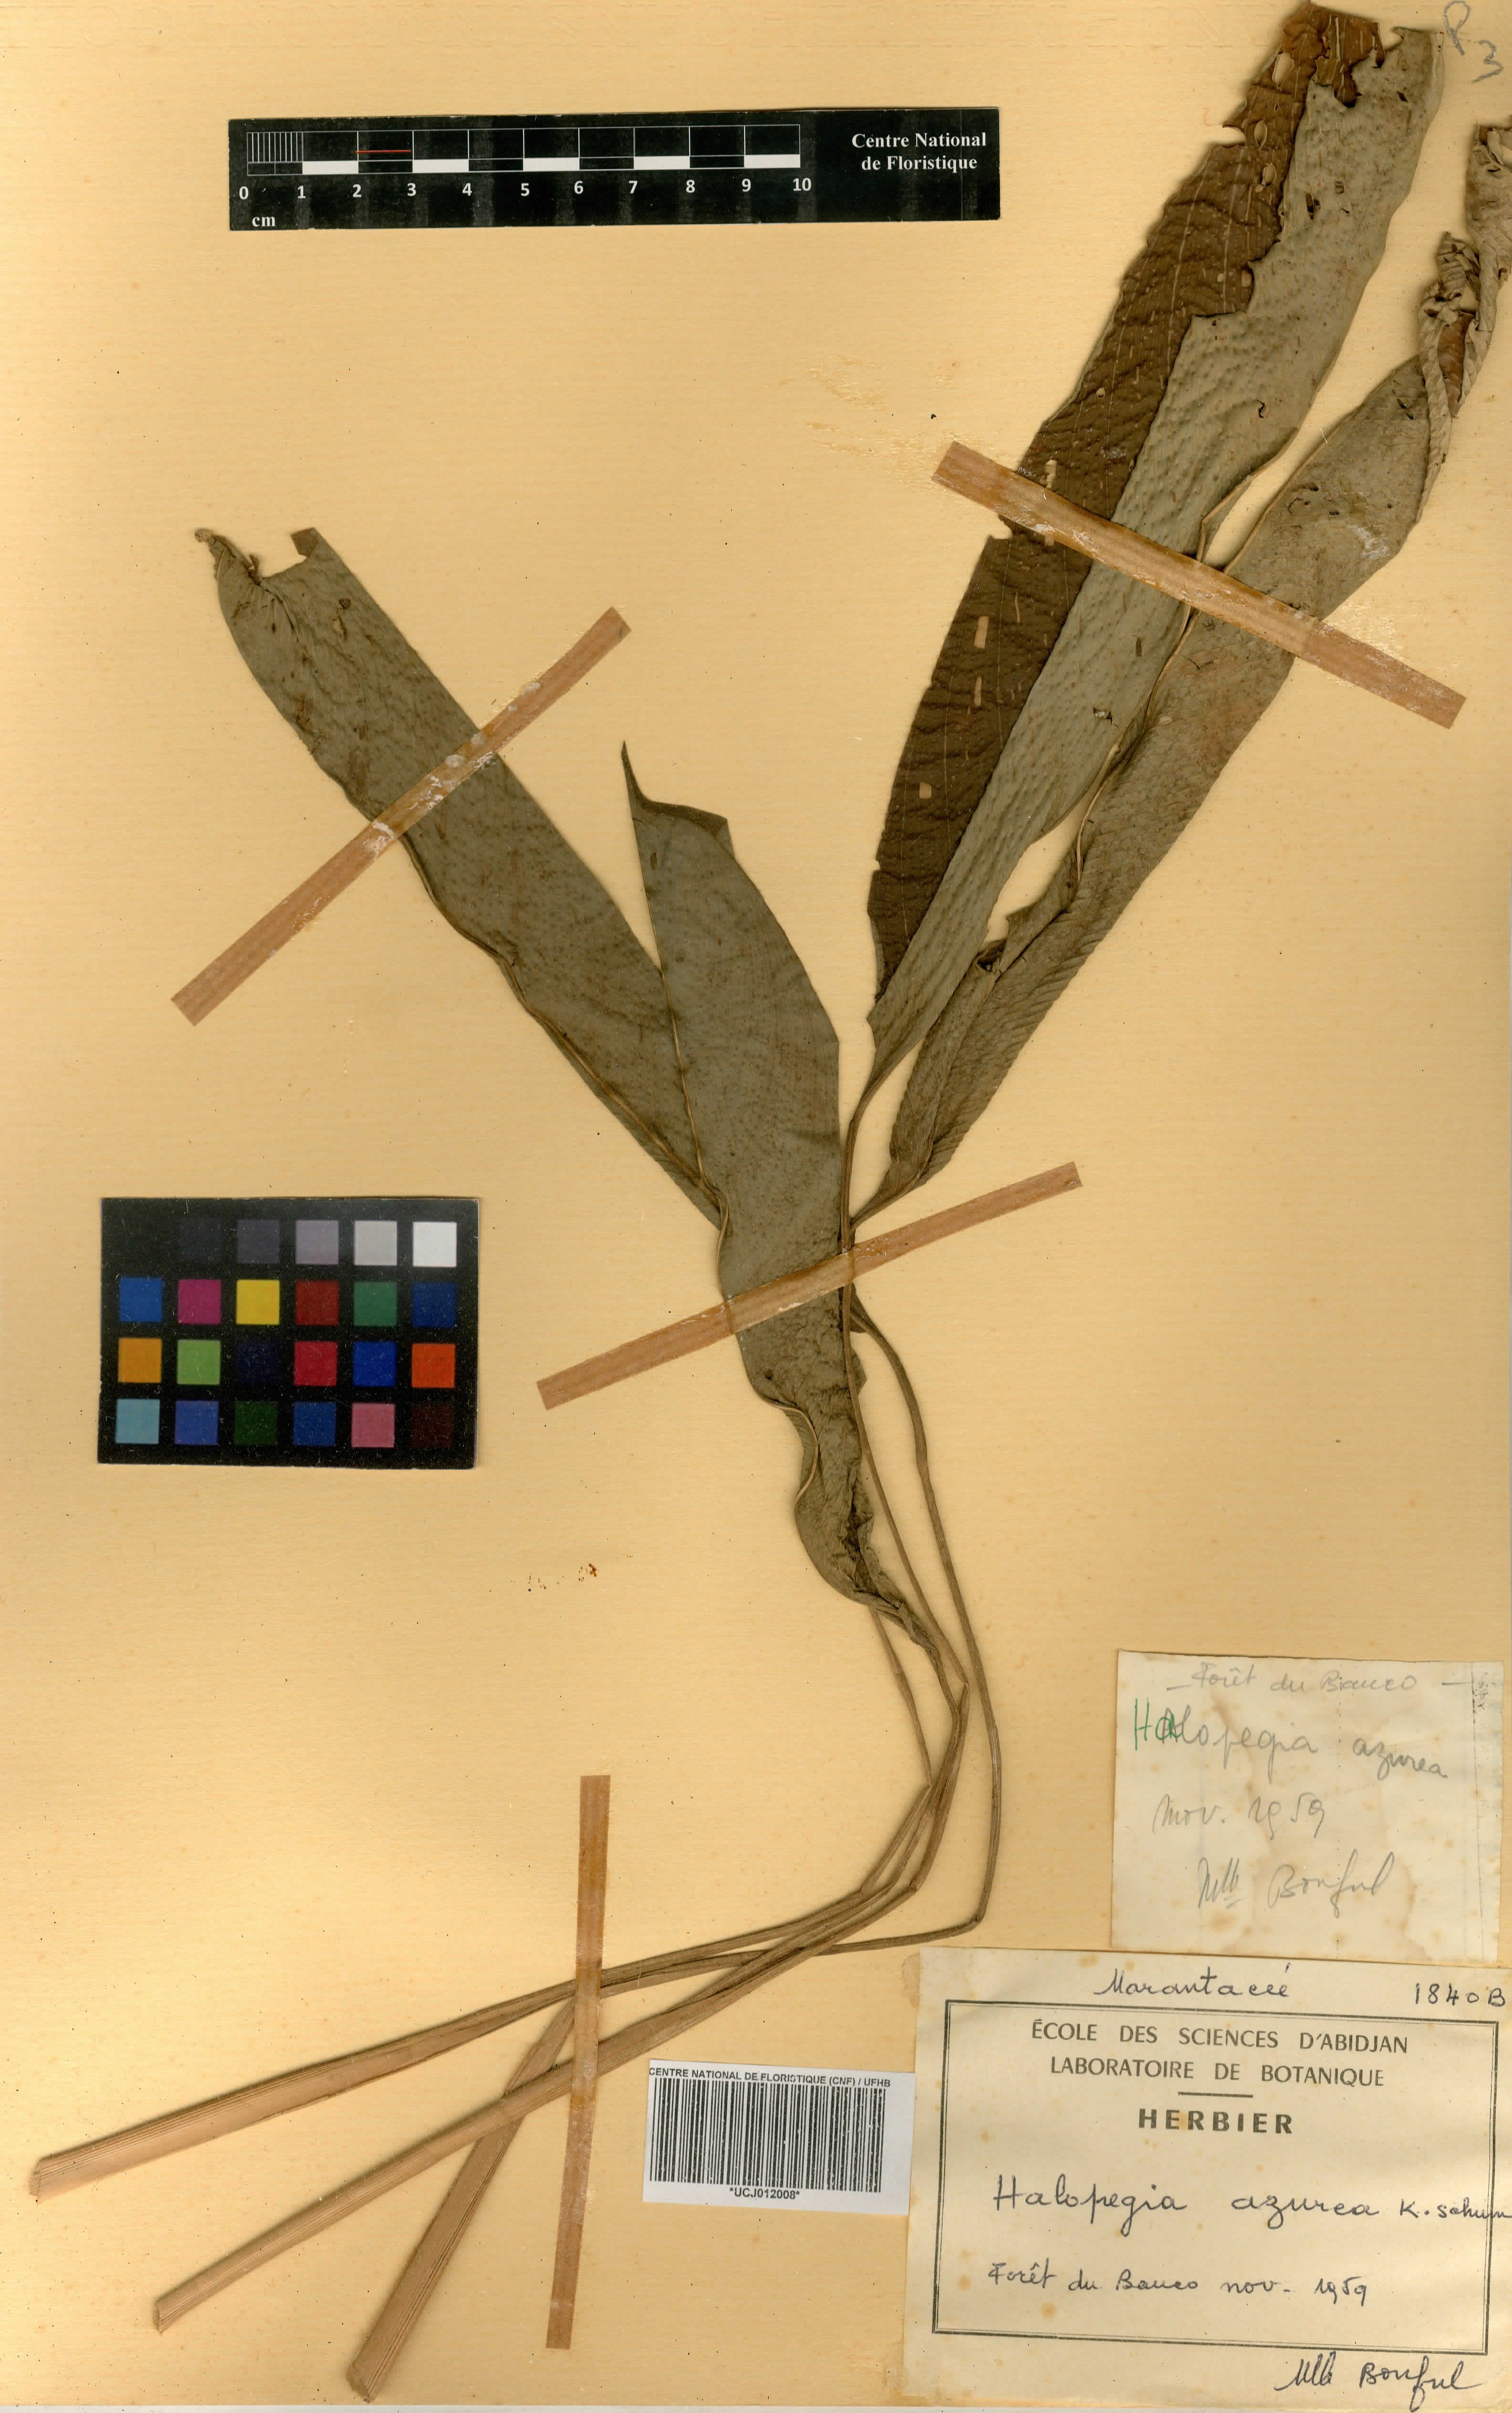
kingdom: Plantae
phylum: Tracheophyta
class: Liliopsida
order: Zingiberales
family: Marantaceae
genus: Halopegia
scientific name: Halopegia azurea
